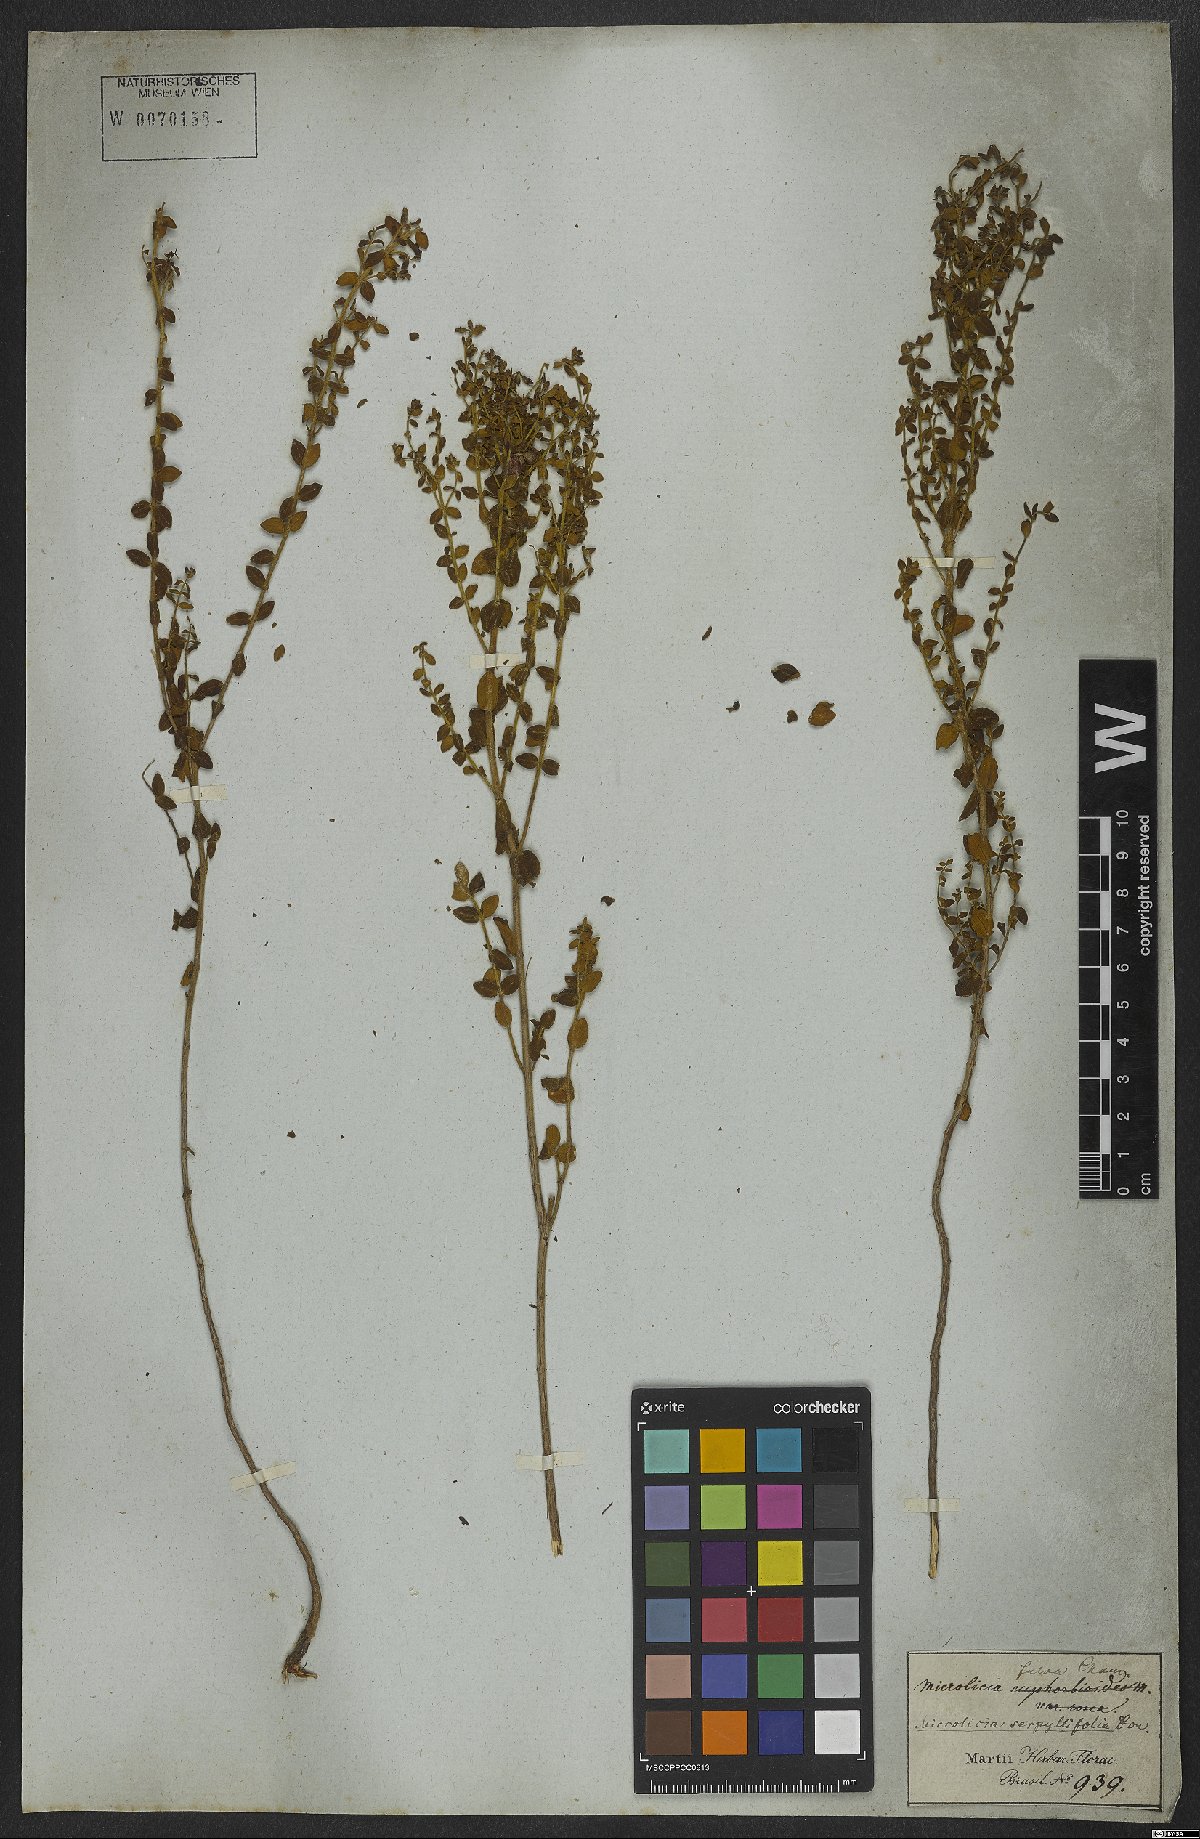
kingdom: Plantae
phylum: Tracheophyta
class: Magnoliopsida
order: Myrtales
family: Melastomataceae
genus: Microlicia
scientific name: Microlicia fulva
